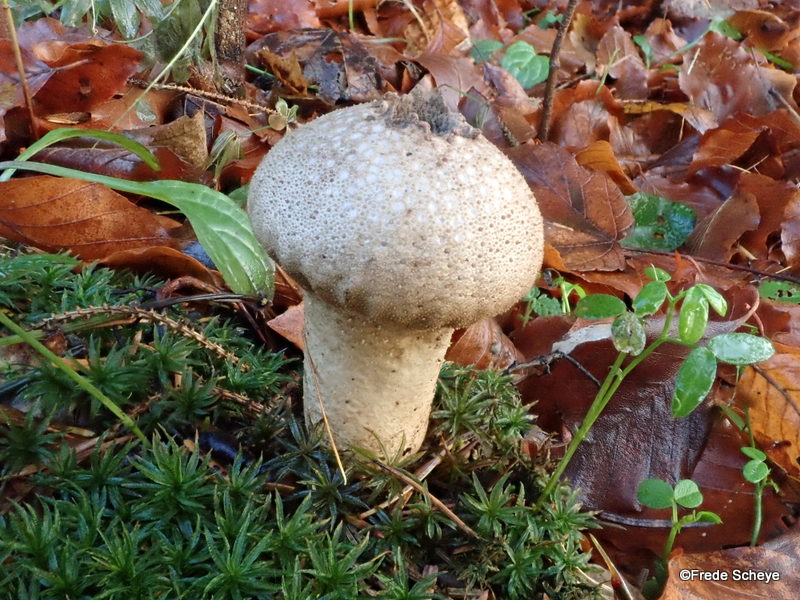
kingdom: Fungi
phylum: Basidiomycota
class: Agaricomycetes
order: Agaricales
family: Lycoperdaceae
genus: Lycoperdon
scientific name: Lycoperdon perlatum
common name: krystal-støvbold
